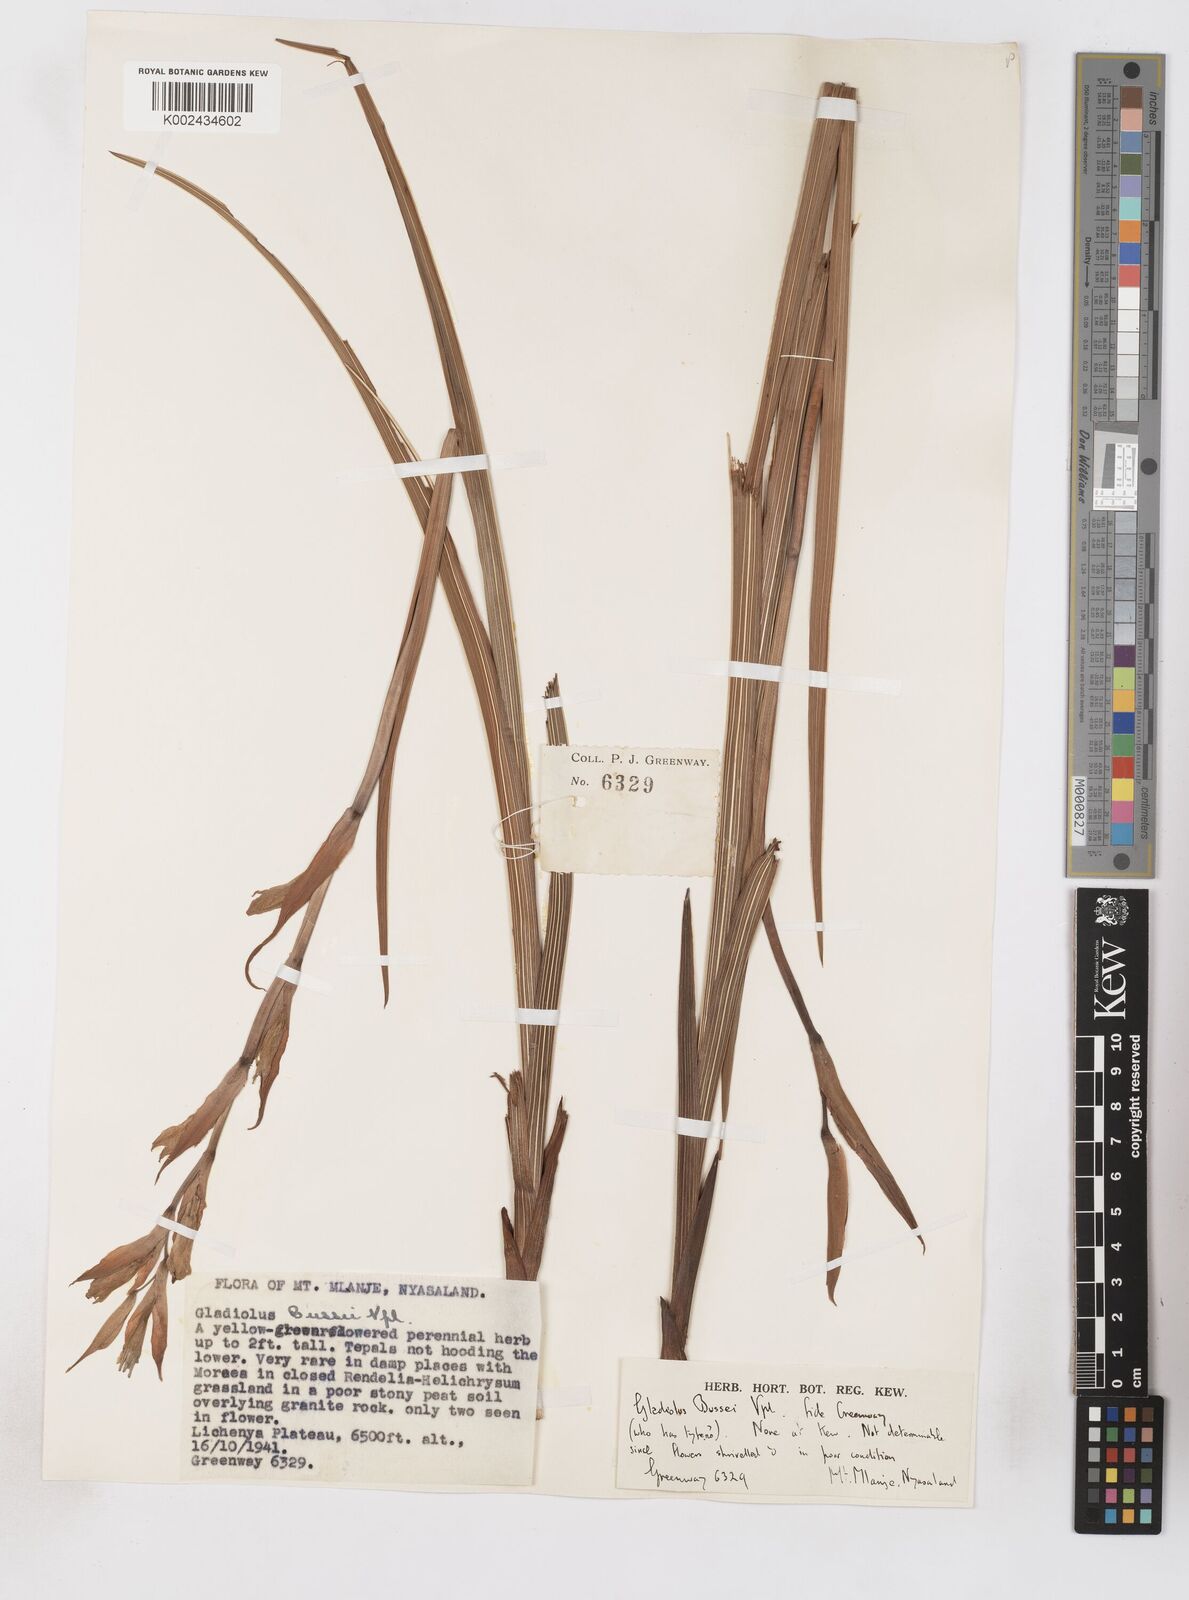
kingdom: Plantae
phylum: Tracheophyta
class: Liliopsida
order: Asparagales
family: Iridaceae
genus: Gladiolus
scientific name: Gladiolus oliganthus
